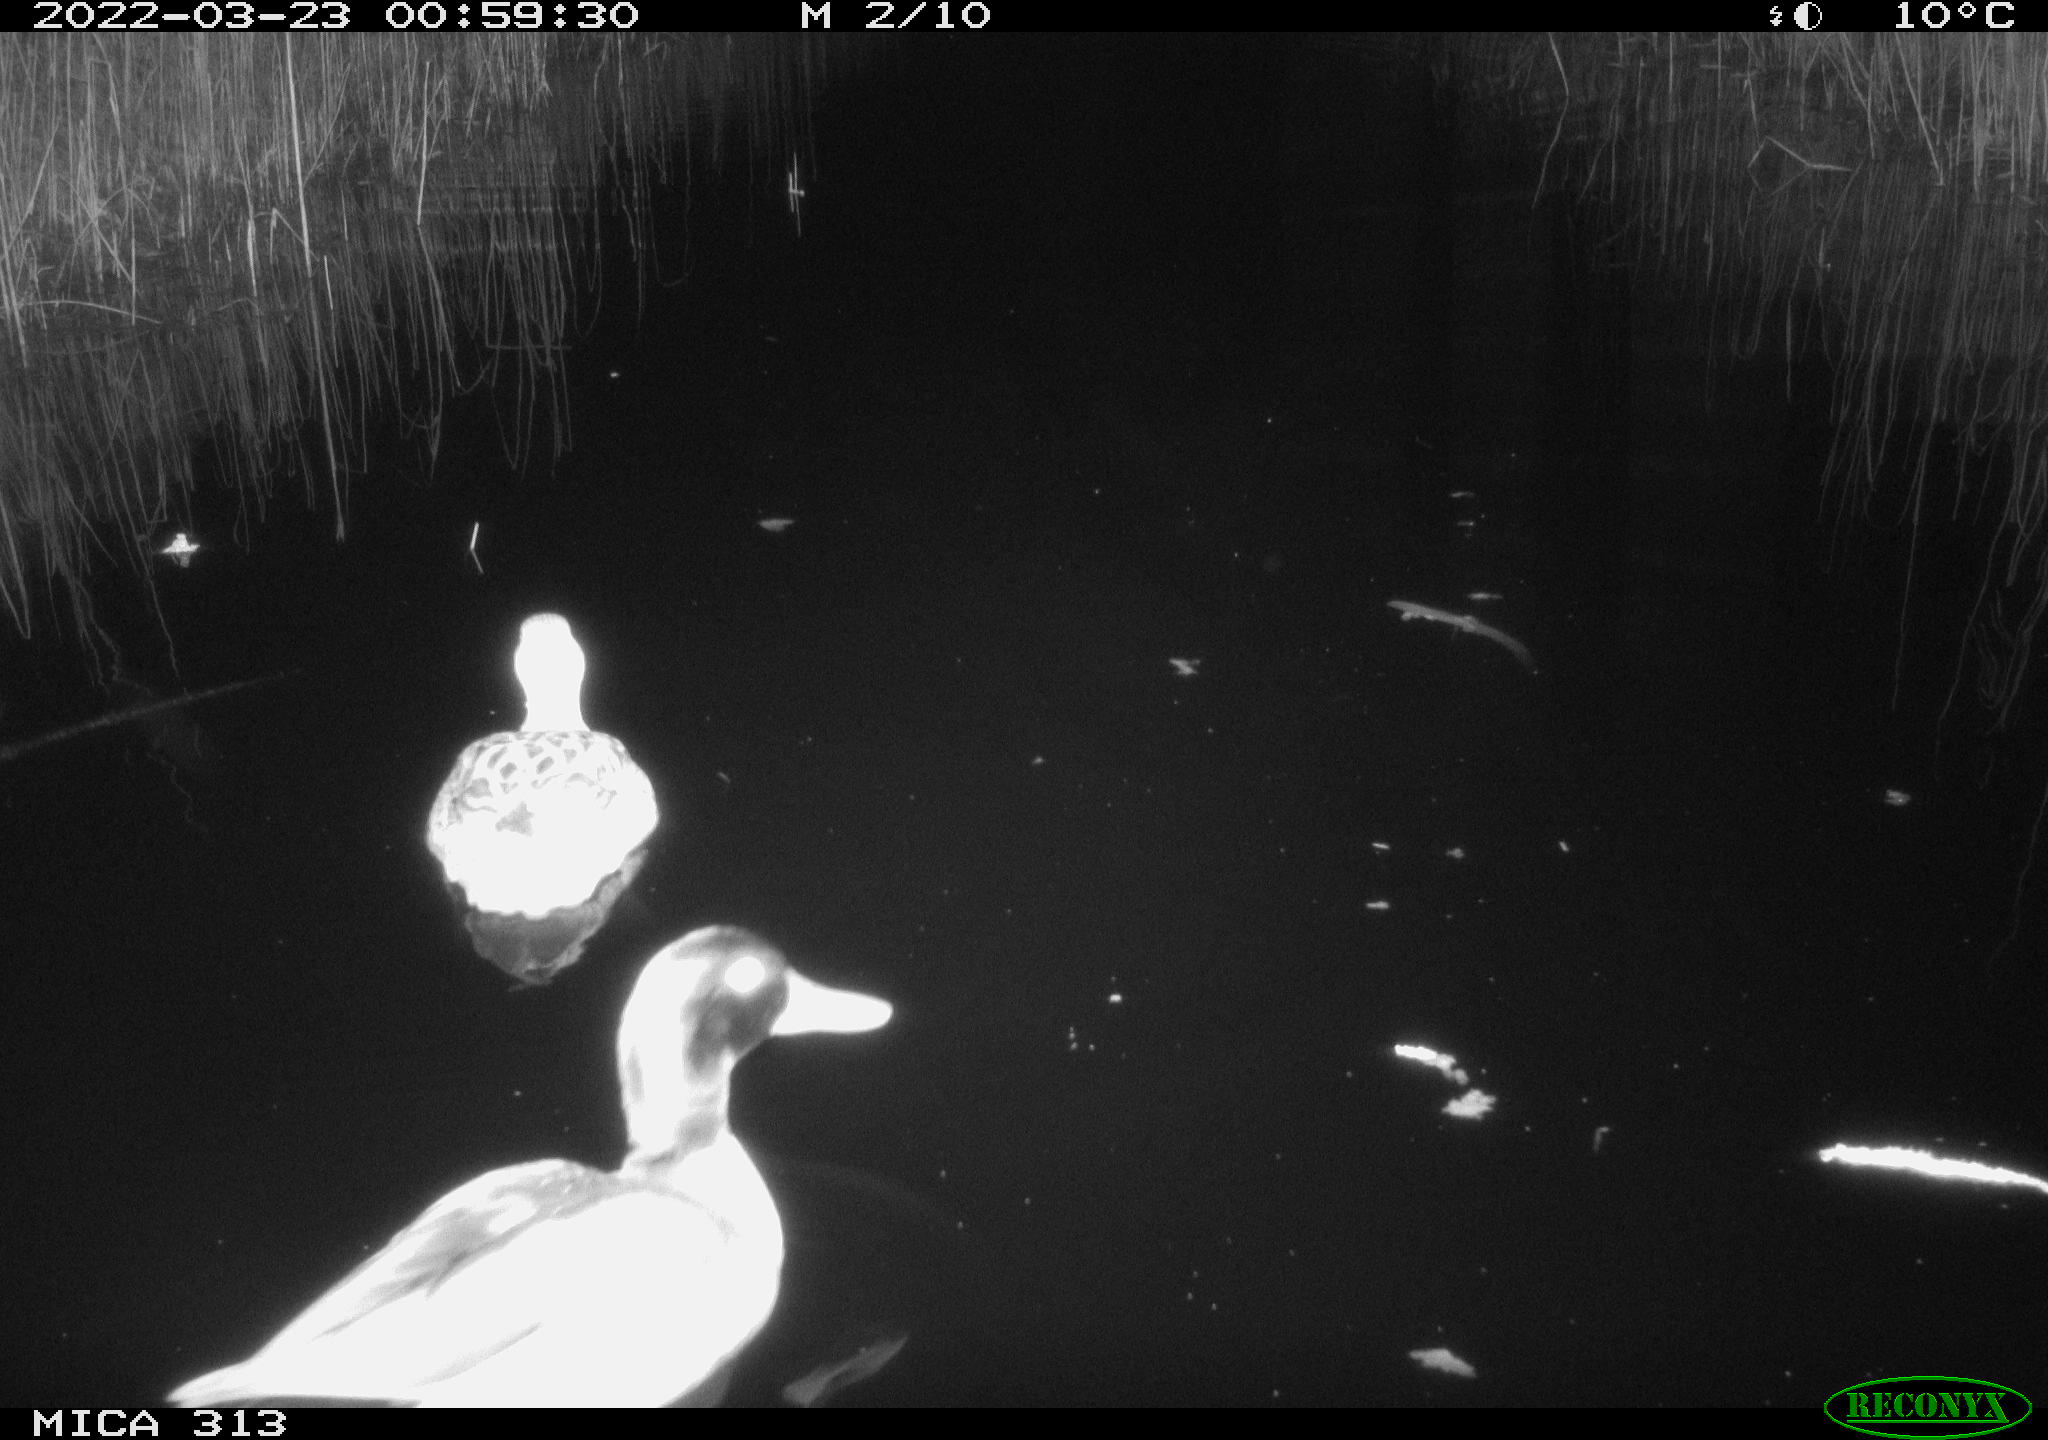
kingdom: Animalia
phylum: Chordata
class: Aves
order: Anseriformes
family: Anatidae
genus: Anas
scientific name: Anas platyrhynchos
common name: Mallard
